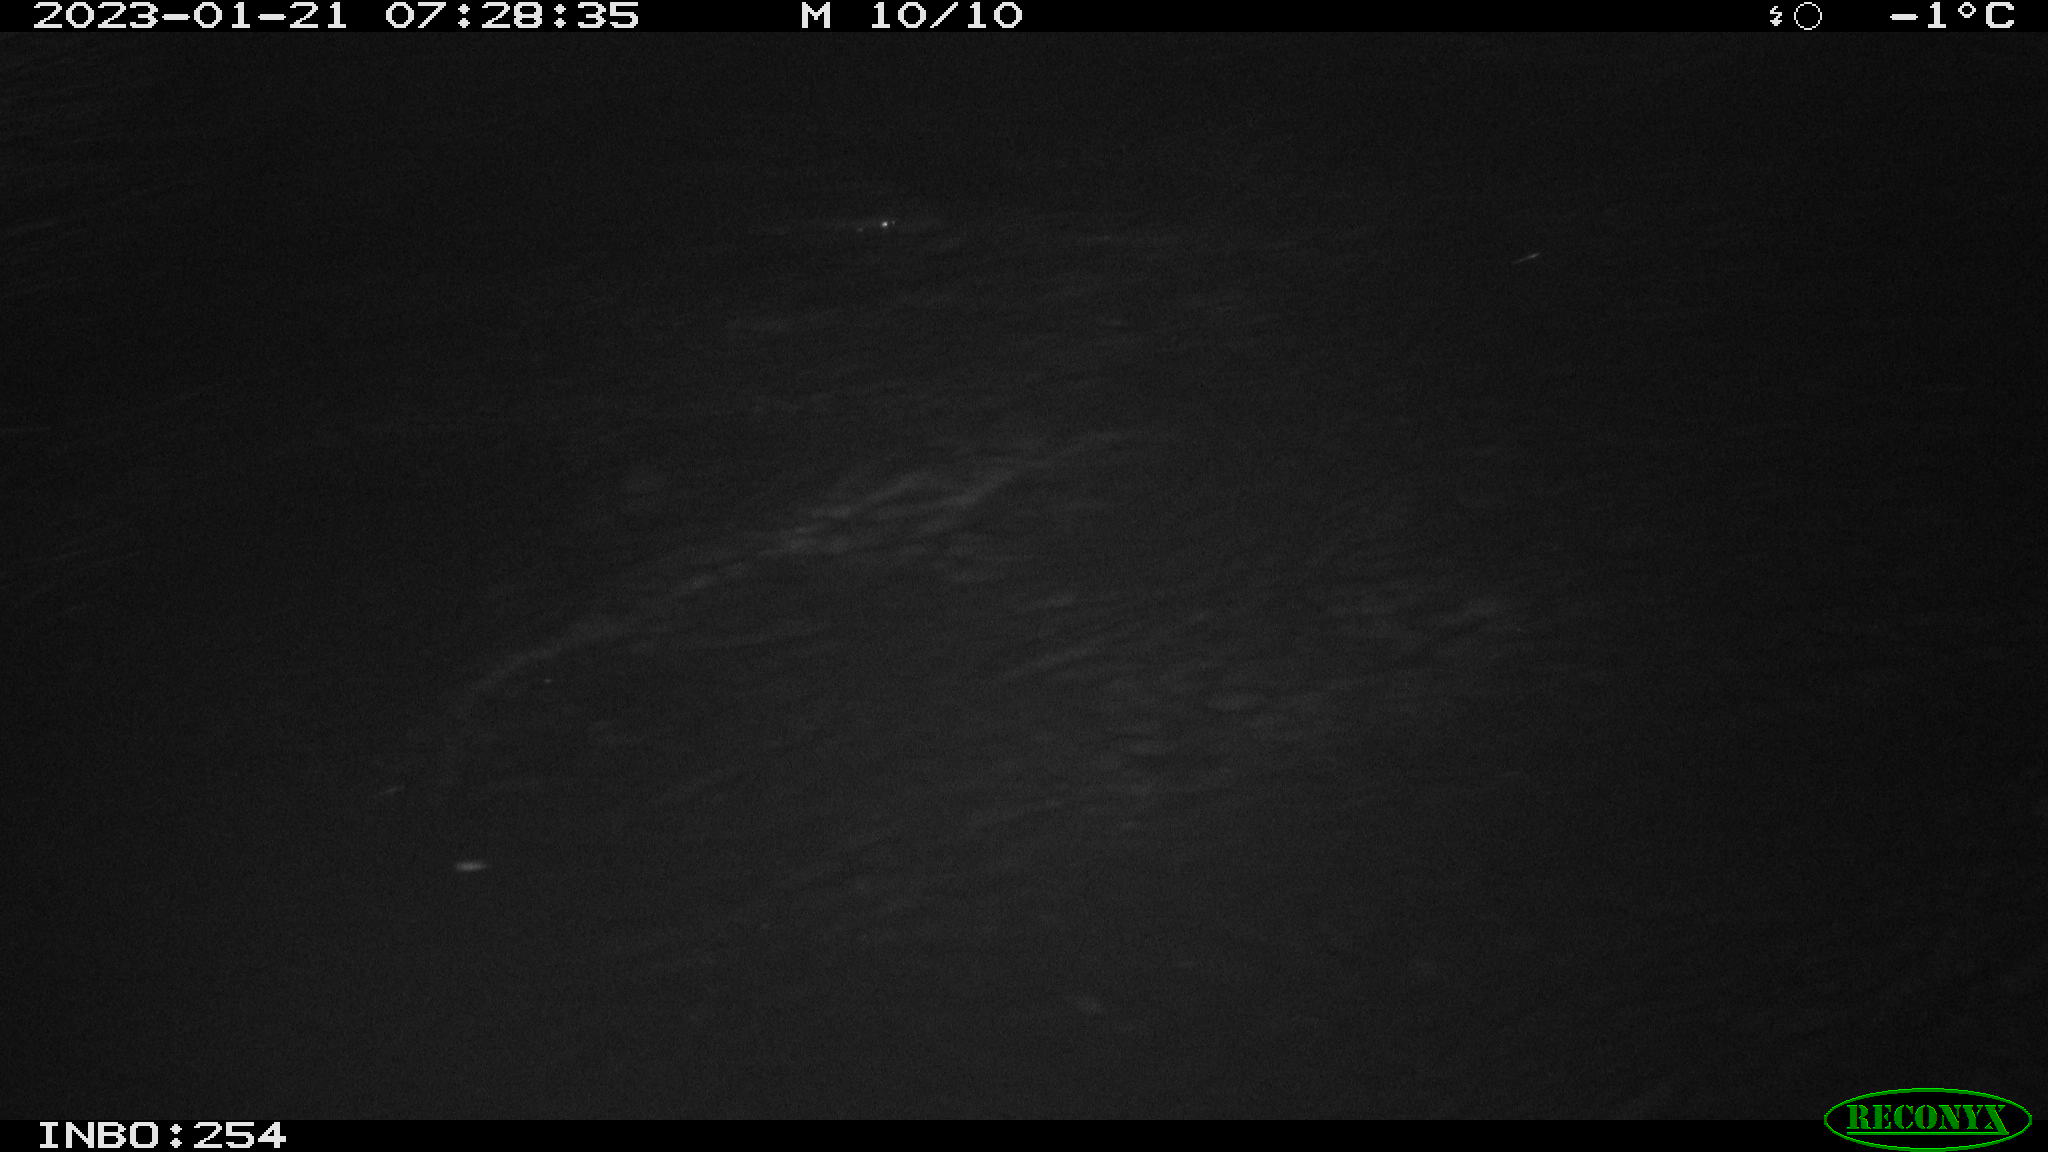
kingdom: Animalia
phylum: Chordata
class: Mammalia
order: Rodentia
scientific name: Rodentia
